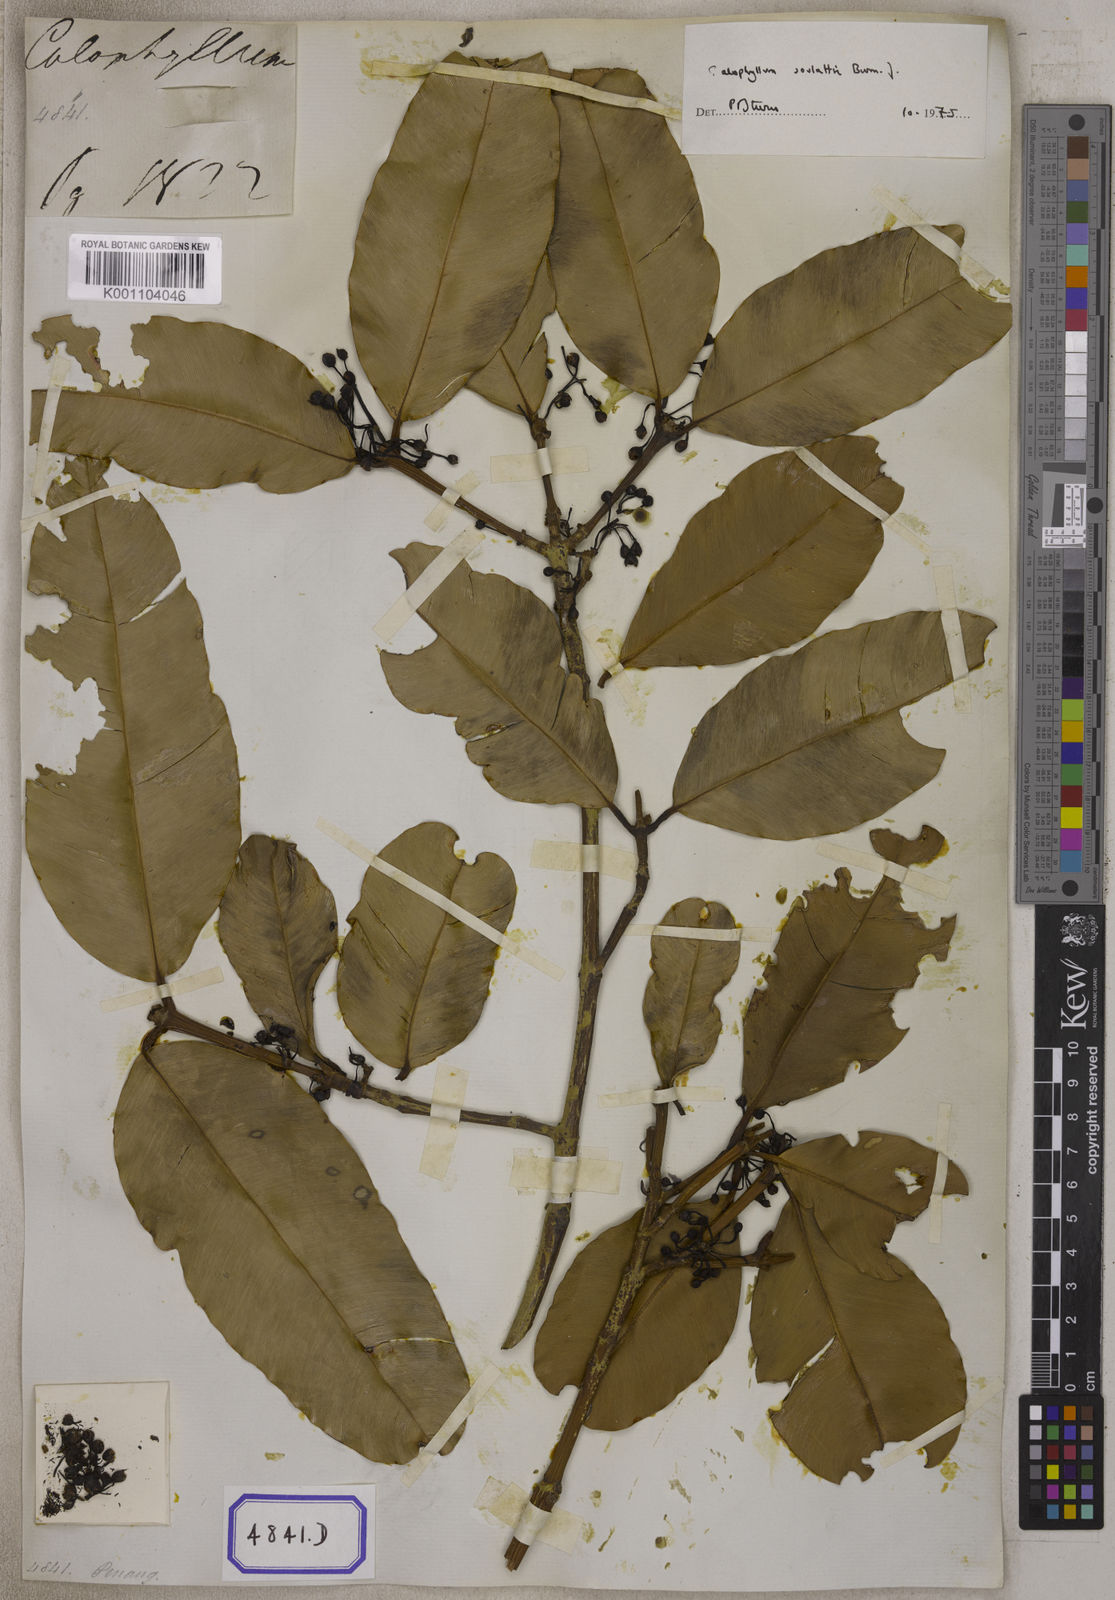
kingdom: Plantae
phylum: Tracheophyta
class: Magnoliopsida
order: Malpighiales
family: Calophyllaceae
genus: Calophyllum
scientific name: Calophyllum inophyllum
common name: Alexandrian laurel
